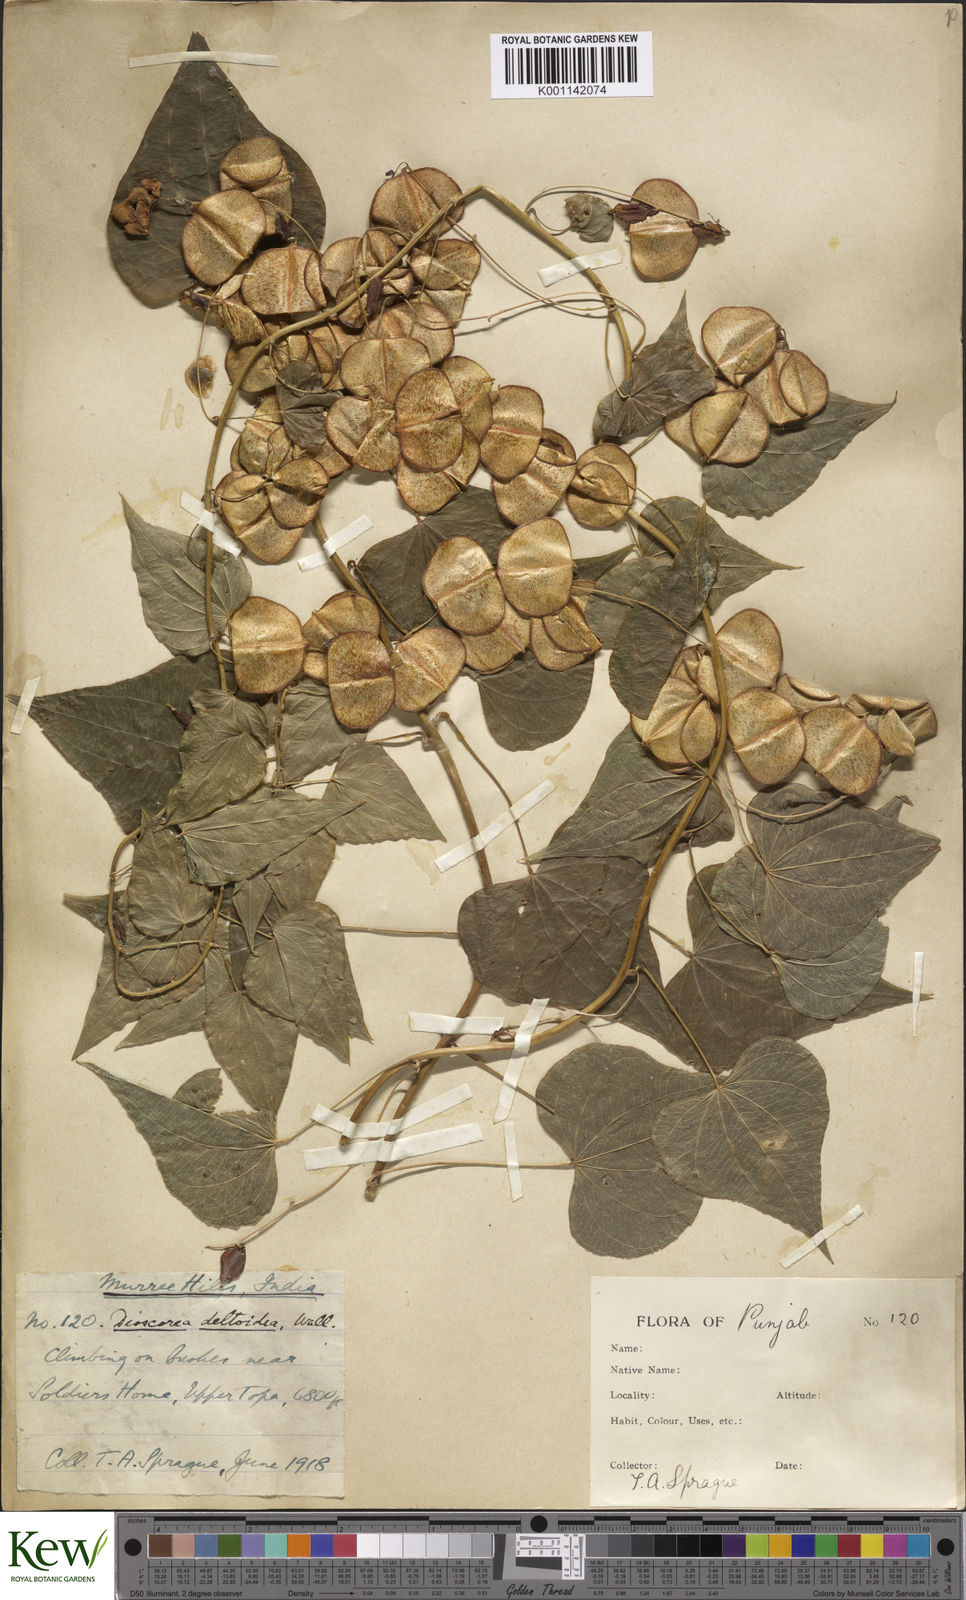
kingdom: Plantae
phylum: Tracheophyta
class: Liliopsida
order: Dioscoreales
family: Dioscoreaceae
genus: Dioscorea
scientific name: Dioscorea deltoidea
